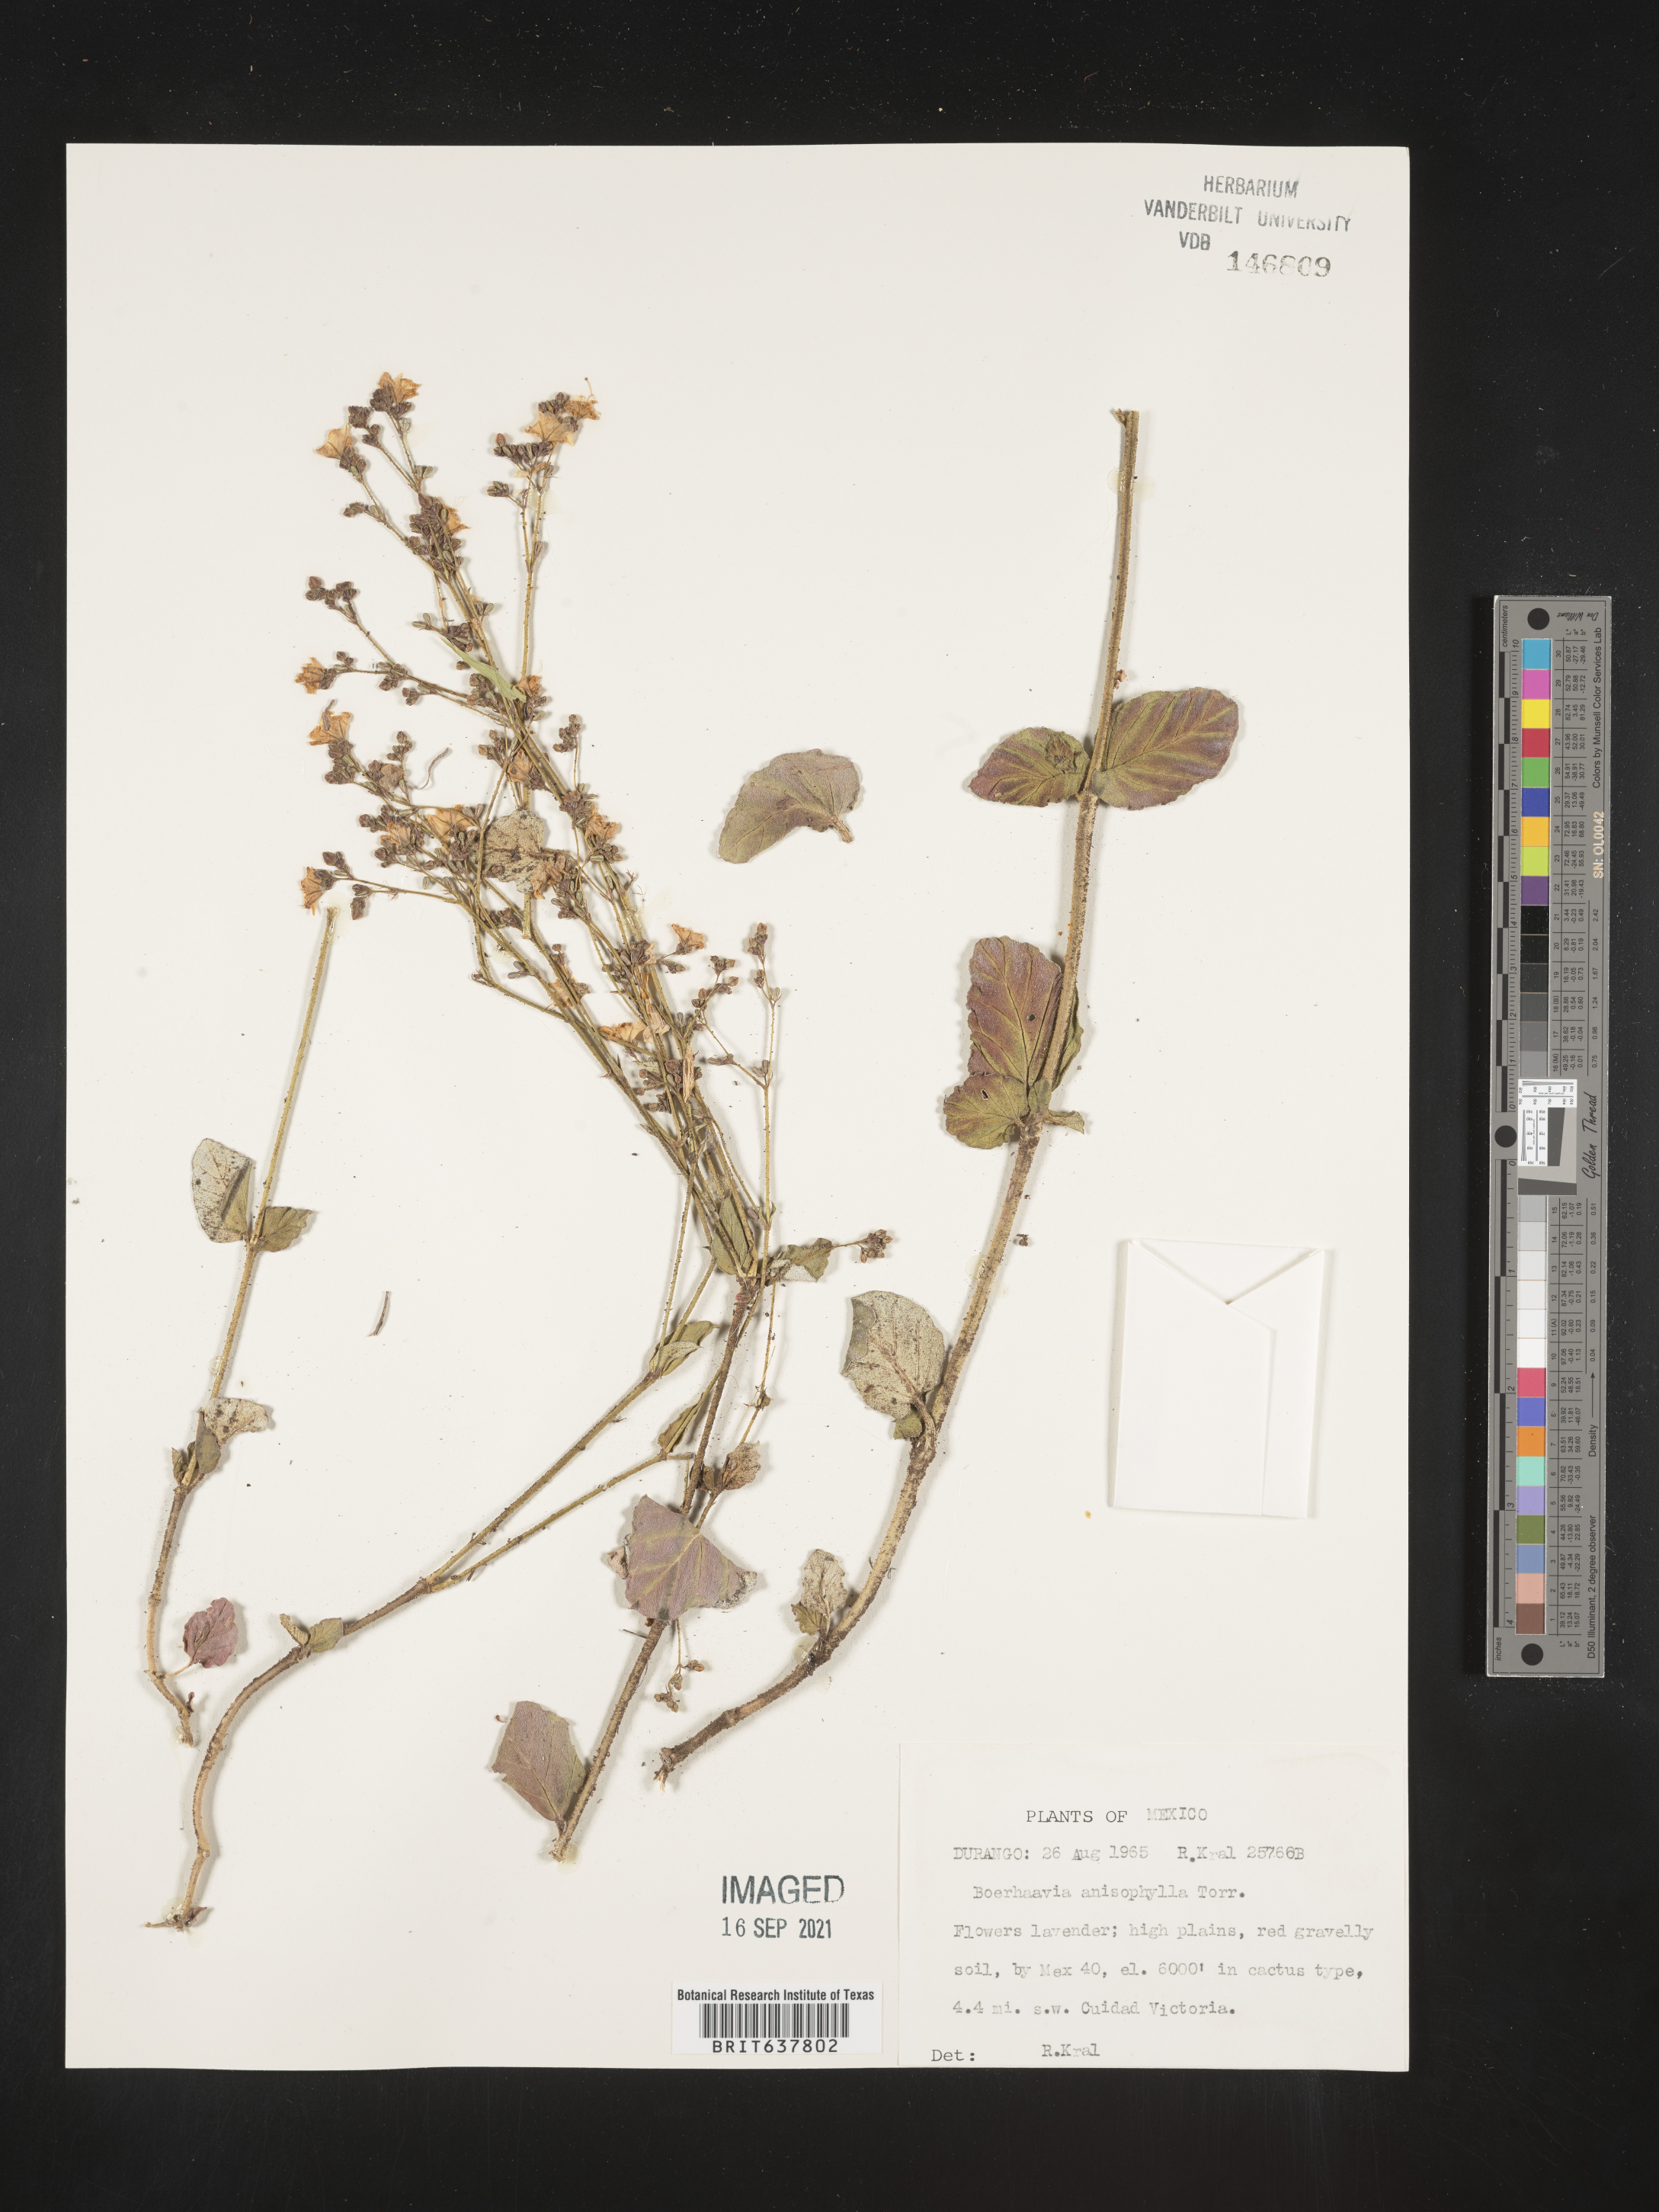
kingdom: Plantae
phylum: Tracheophyta
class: Magnoliopsida
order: Caryophyllales
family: Nyctaginaceae
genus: Boerhavia
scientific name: Boerhavia
